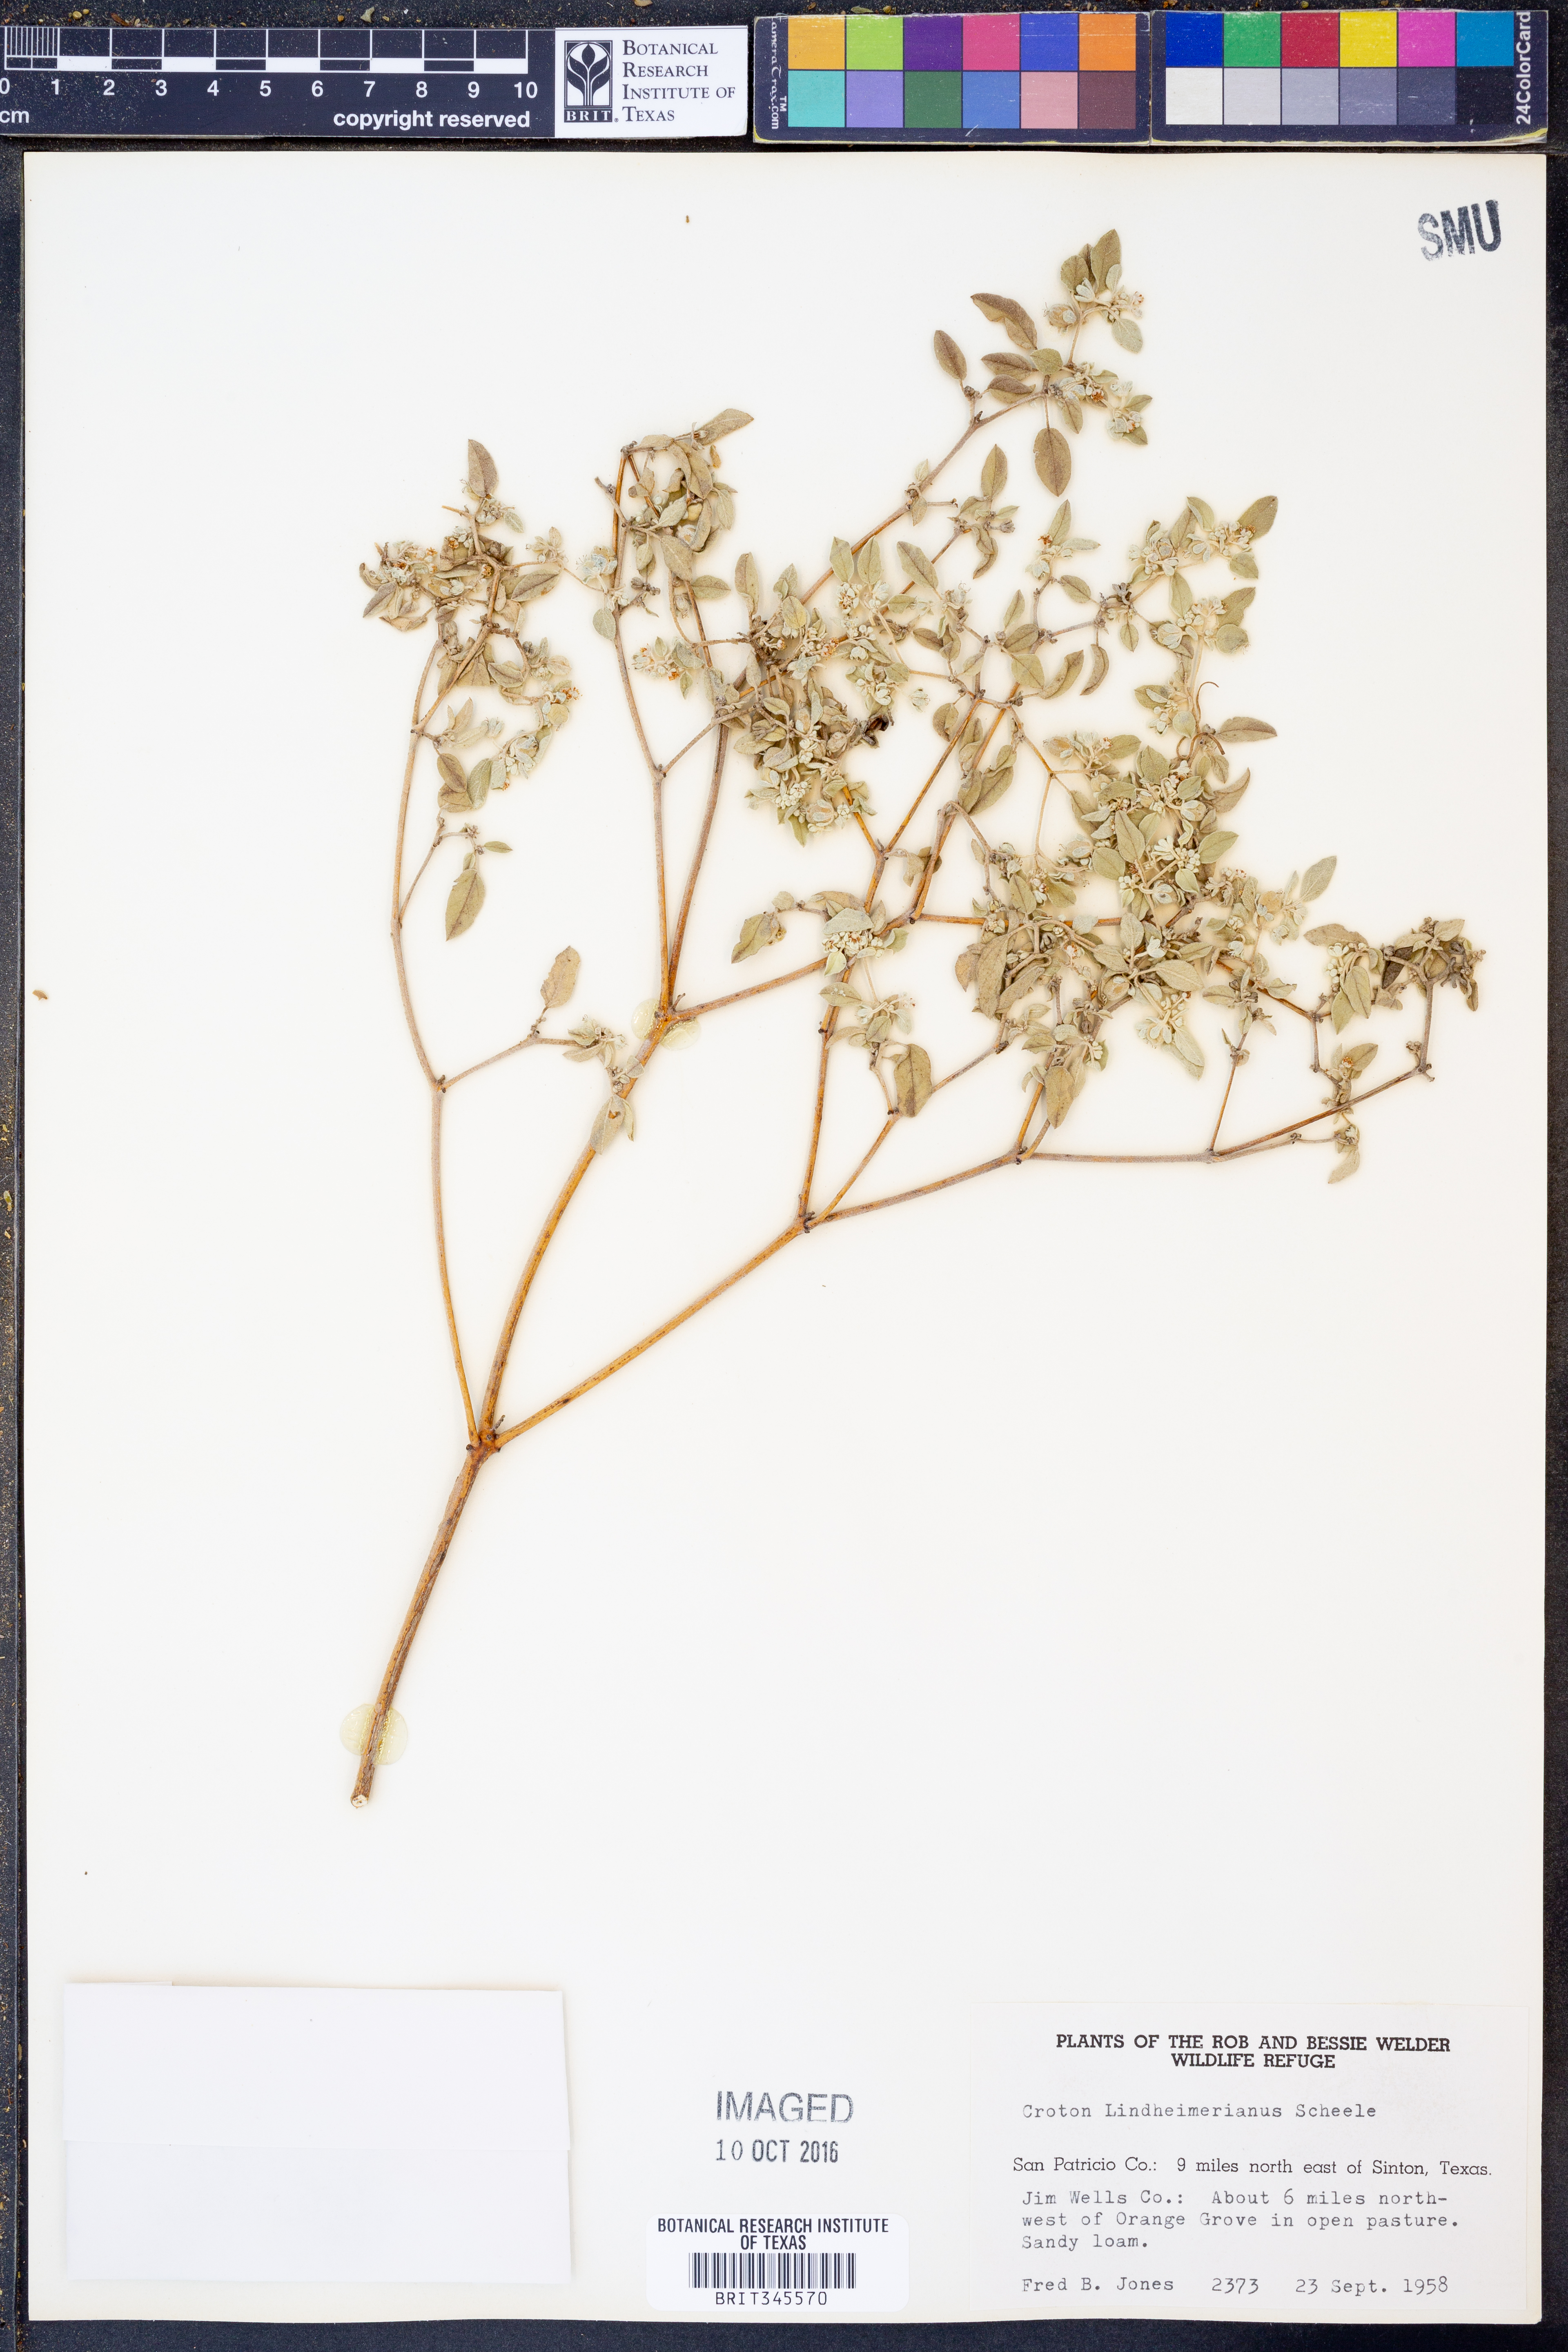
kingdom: Plantae
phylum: Tracheophyta
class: Magnoliopsida
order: Malpighiales
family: Euphorbiaceae
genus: Croton
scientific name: Croton lindheimerianus
